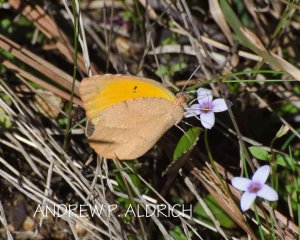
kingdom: Animalia
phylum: Arthropoda
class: Insecta
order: Lepidoptera
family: Pieridae
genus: Abaeis
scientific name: Abaeis nicippe
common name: Sleepy Orange
